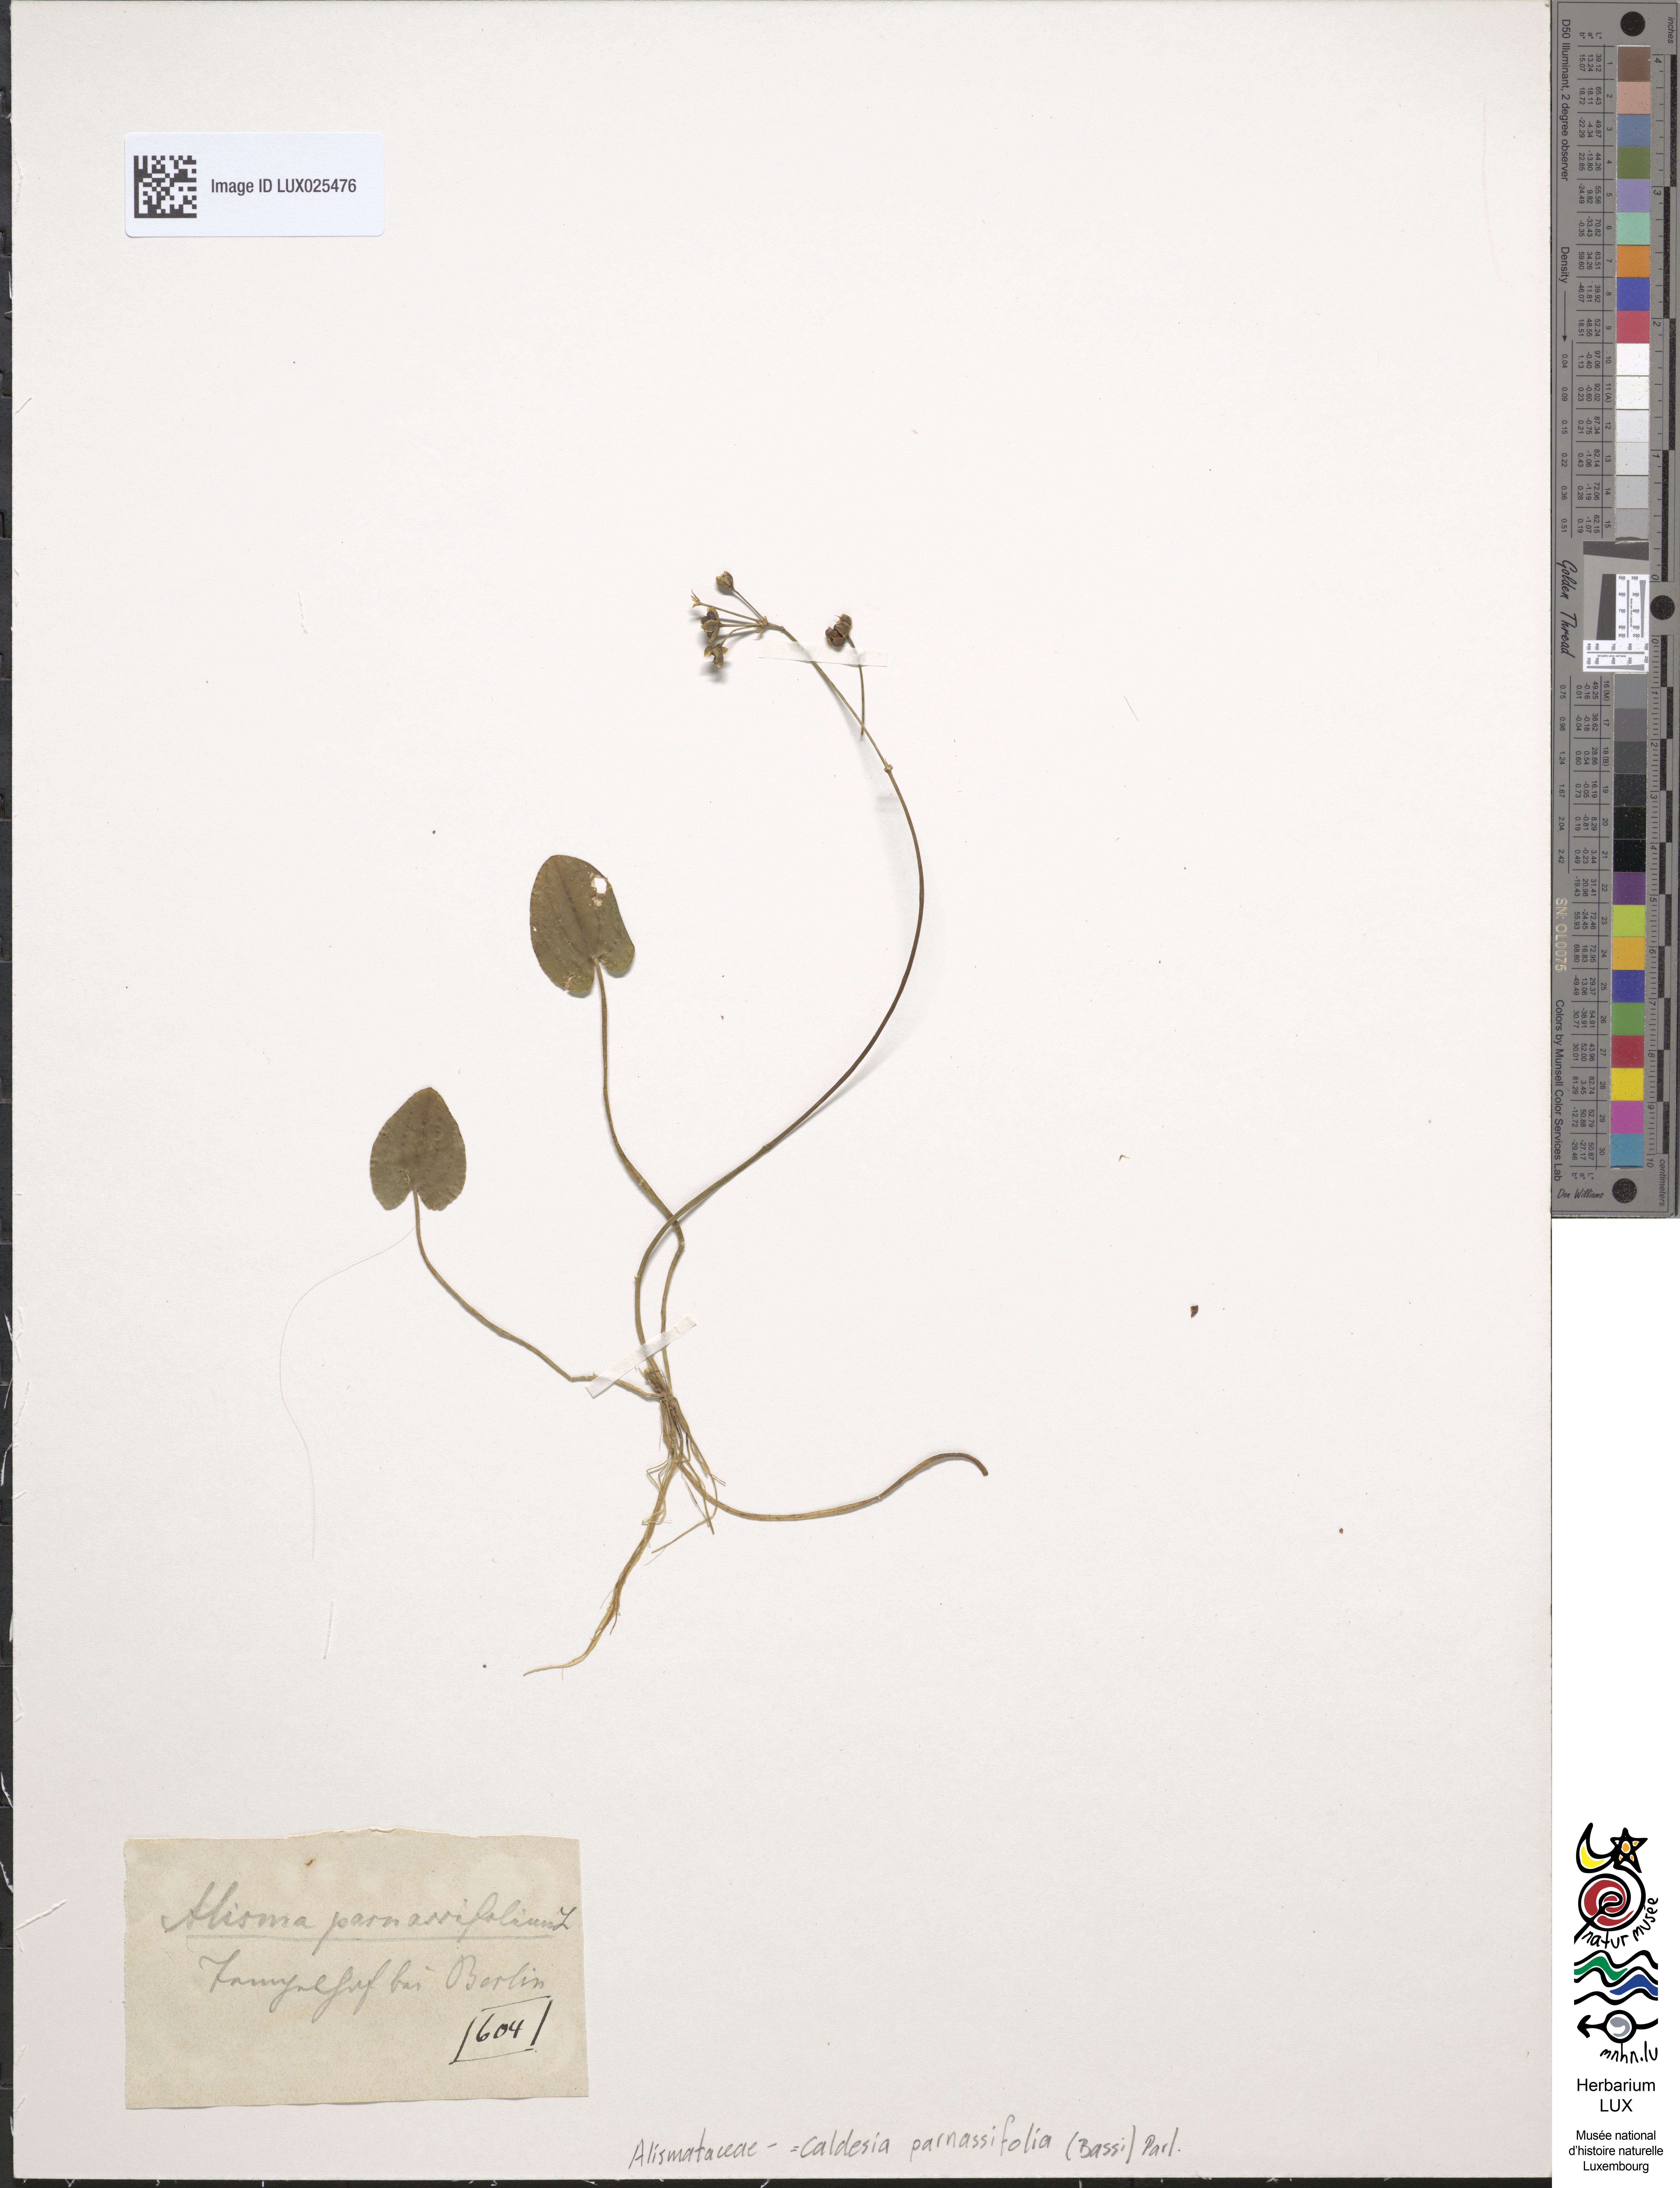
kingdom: Plantae
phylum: Tracheophyta
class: Liliopsida
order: Alismatales
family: Alismataceae
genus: Caldesia
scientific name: Caldesia parnassifolia
